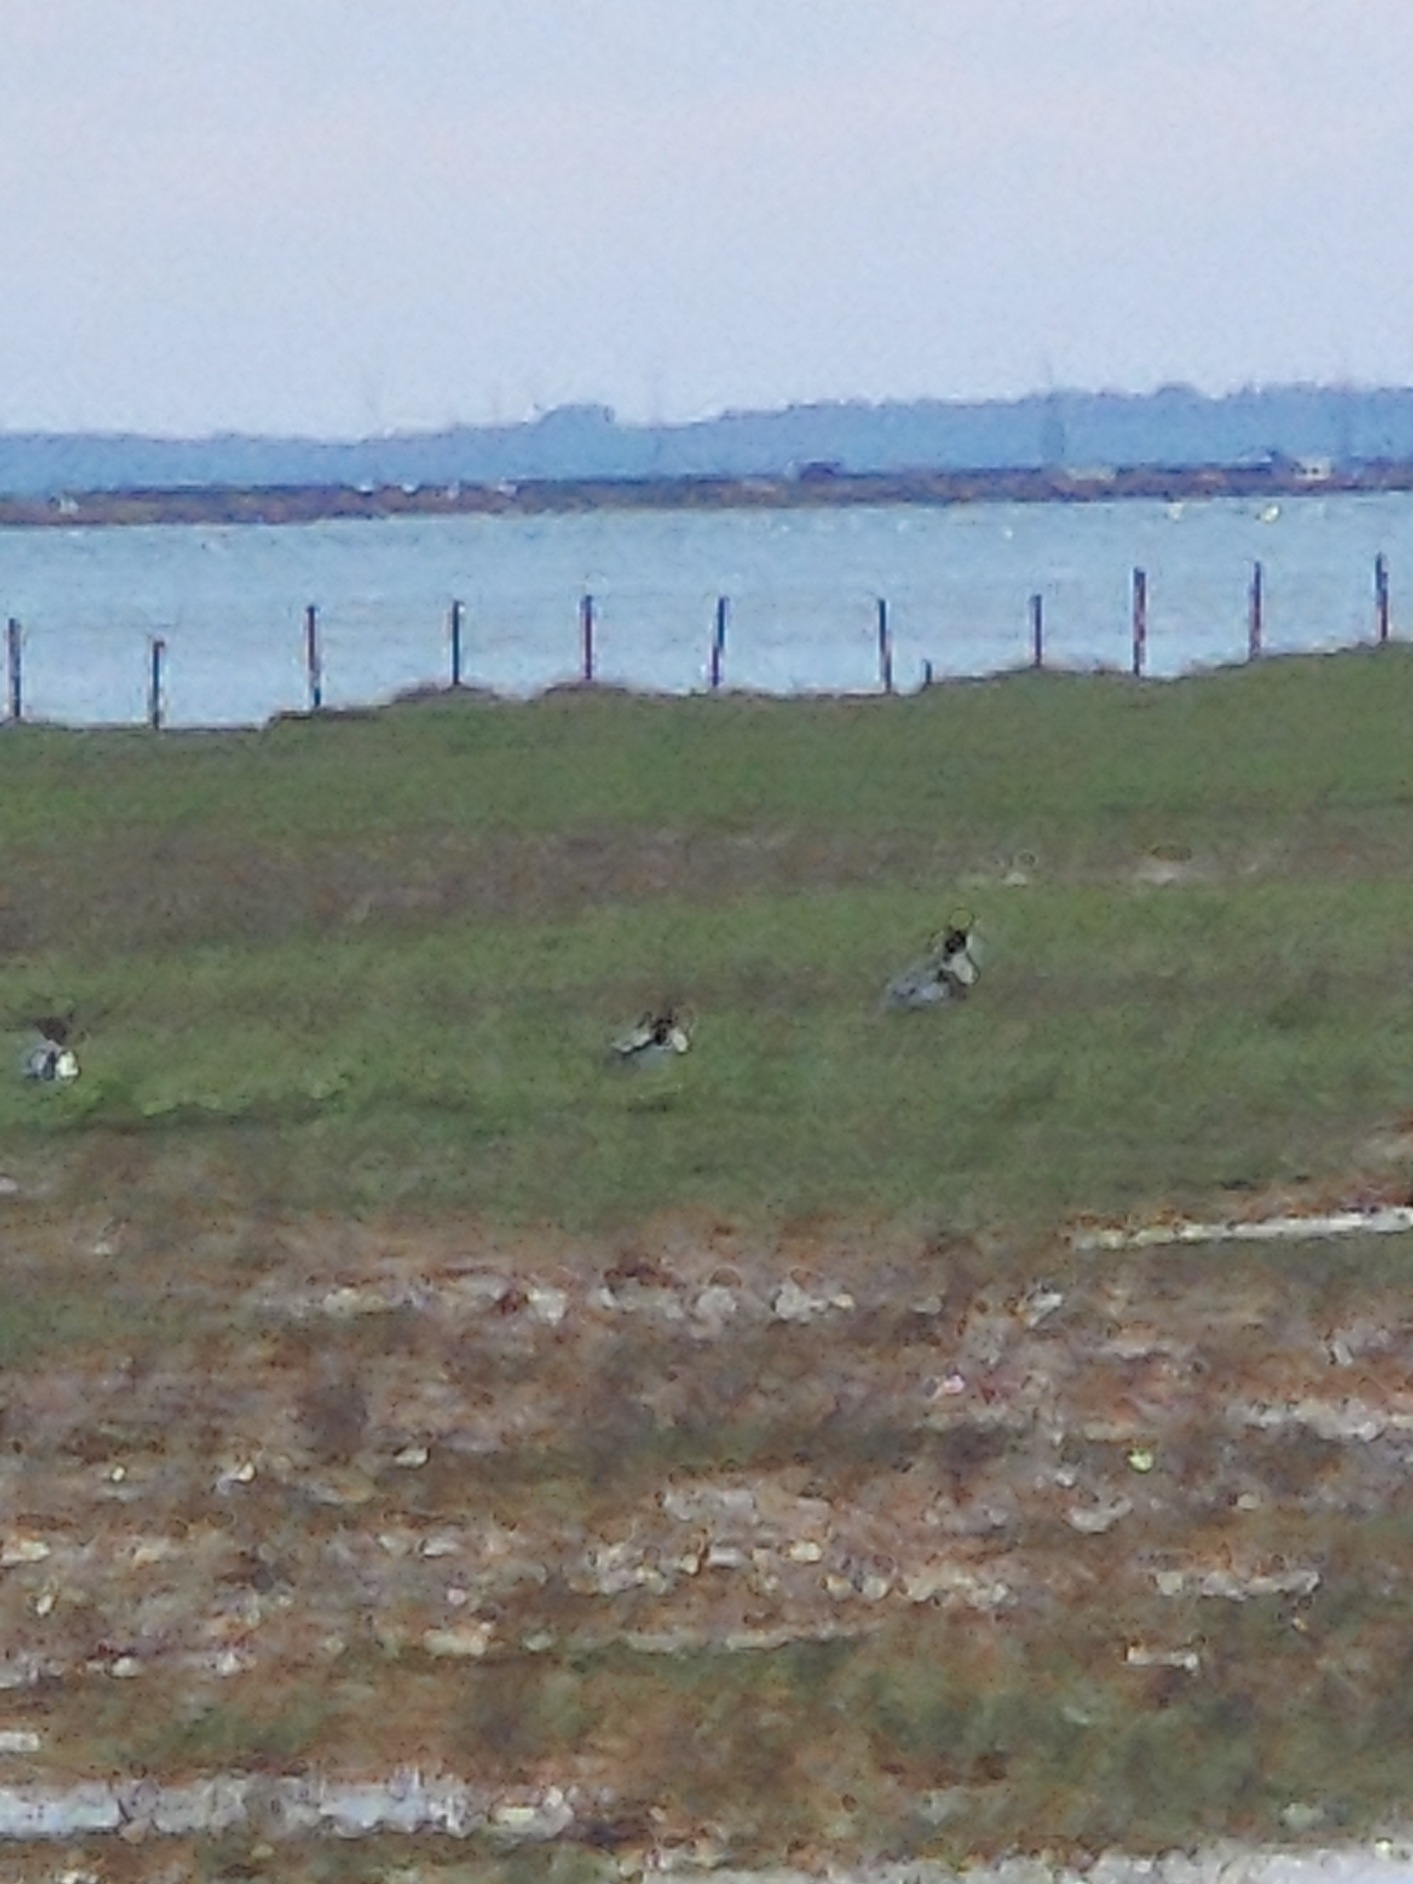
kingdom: Animalia
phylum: Chordata
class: Aves
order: Anseriformes
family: Anatidae
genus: Tadorna
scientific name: Tadorna tadorna
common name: Gravand
